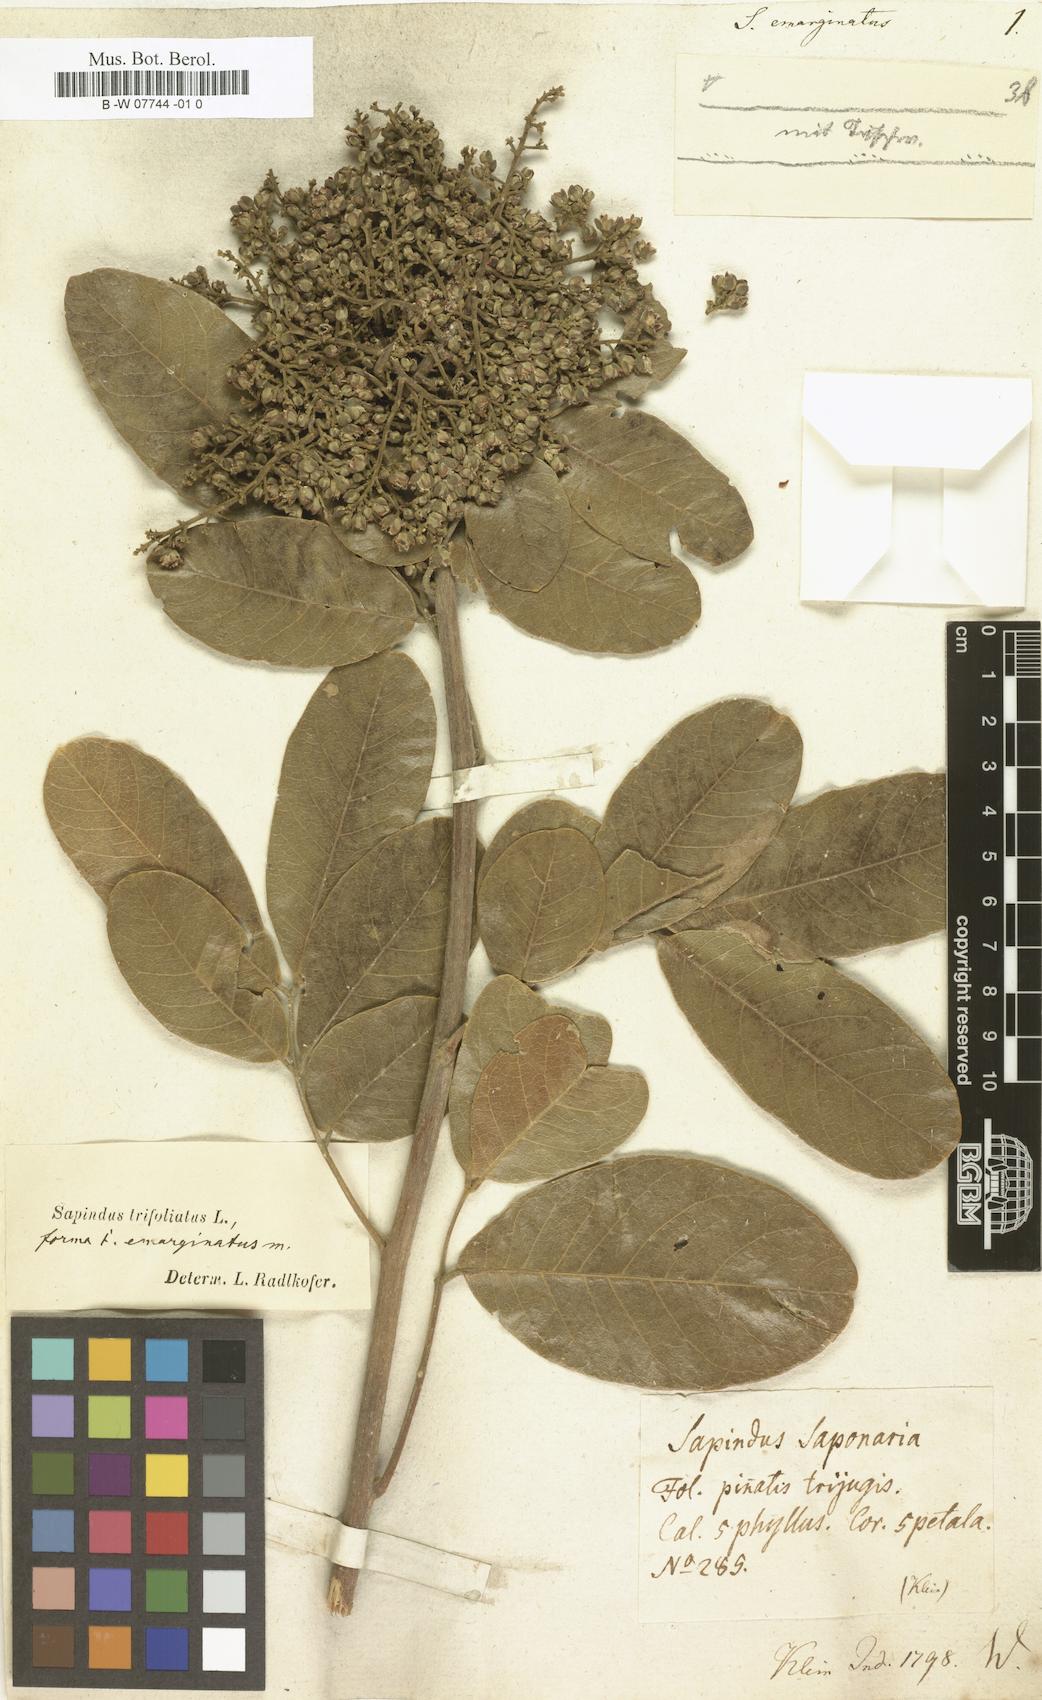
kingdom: Plantae
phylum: Tracheophyta
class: Magnoliopsida
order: Sapindales
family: Sapindaceae
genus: Sapindus
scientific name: Sapindus emarginatus
